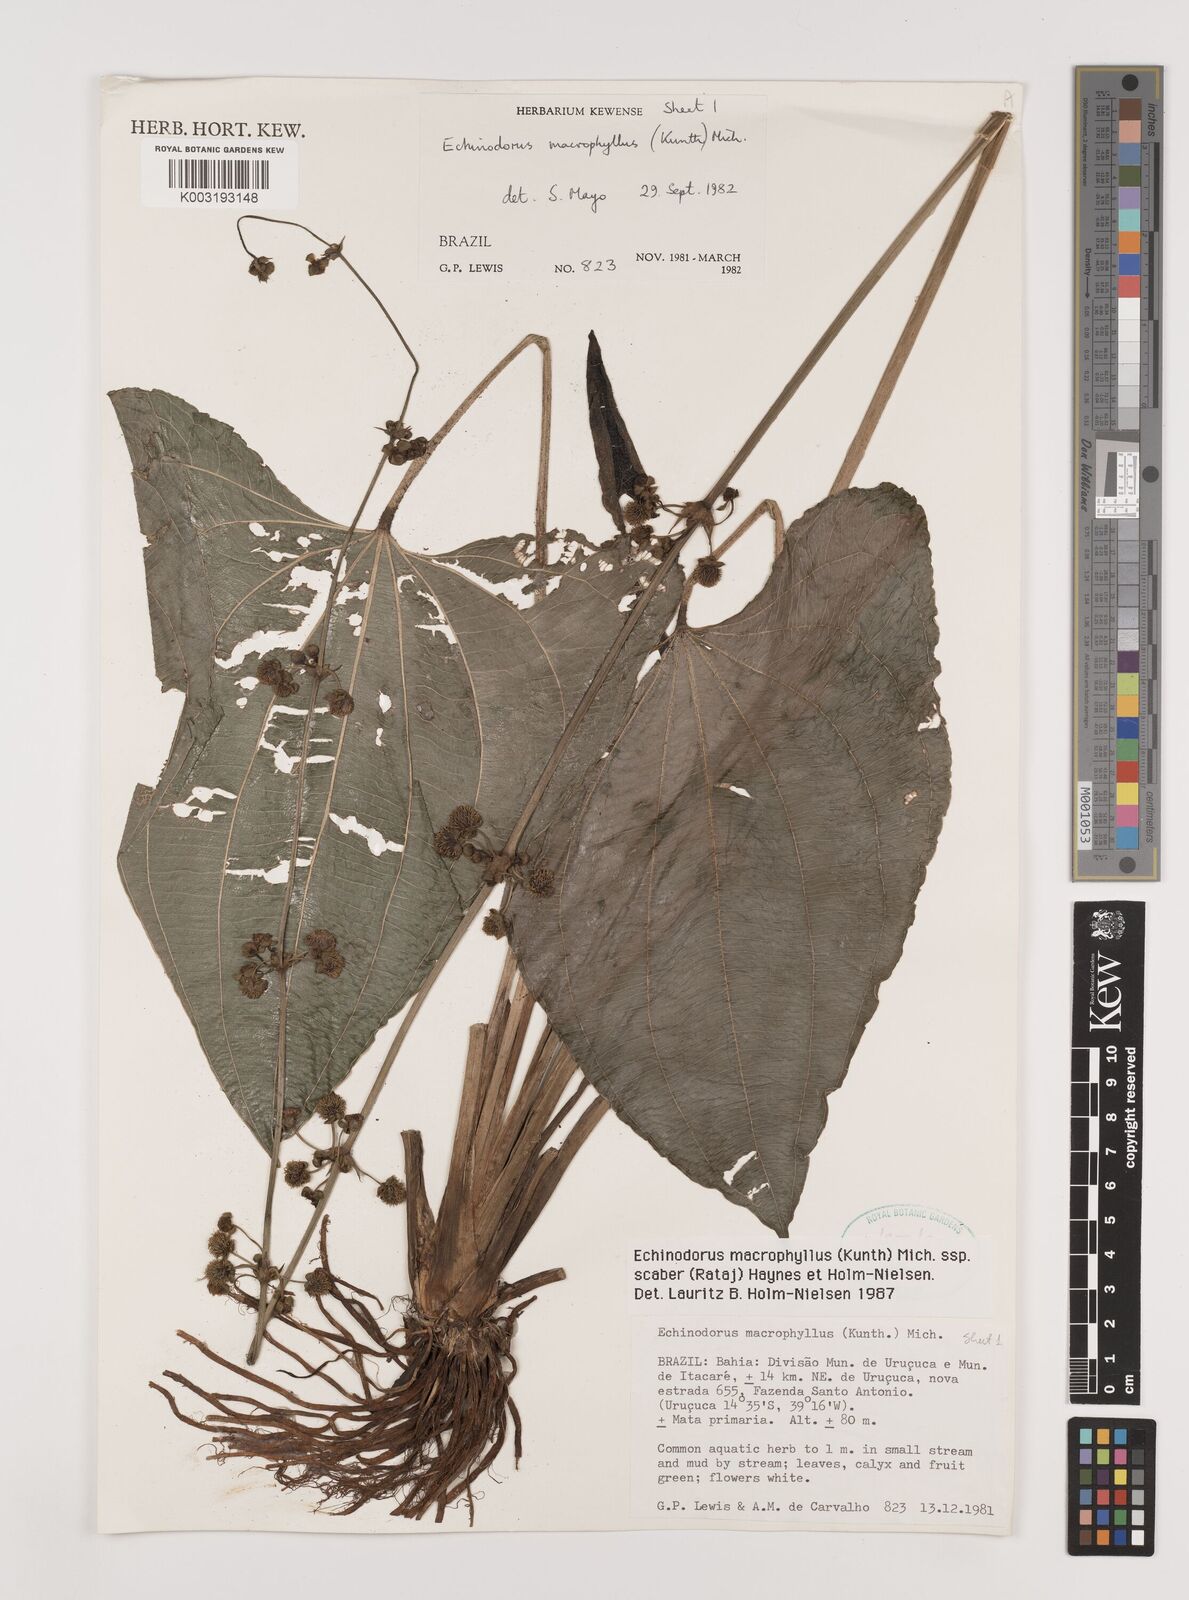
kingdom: Plantae
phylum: Tracheophyta
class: Liliopsida
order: Alismatales
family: Alismataceae
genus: Aquarius
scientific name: Aquarius scaber
